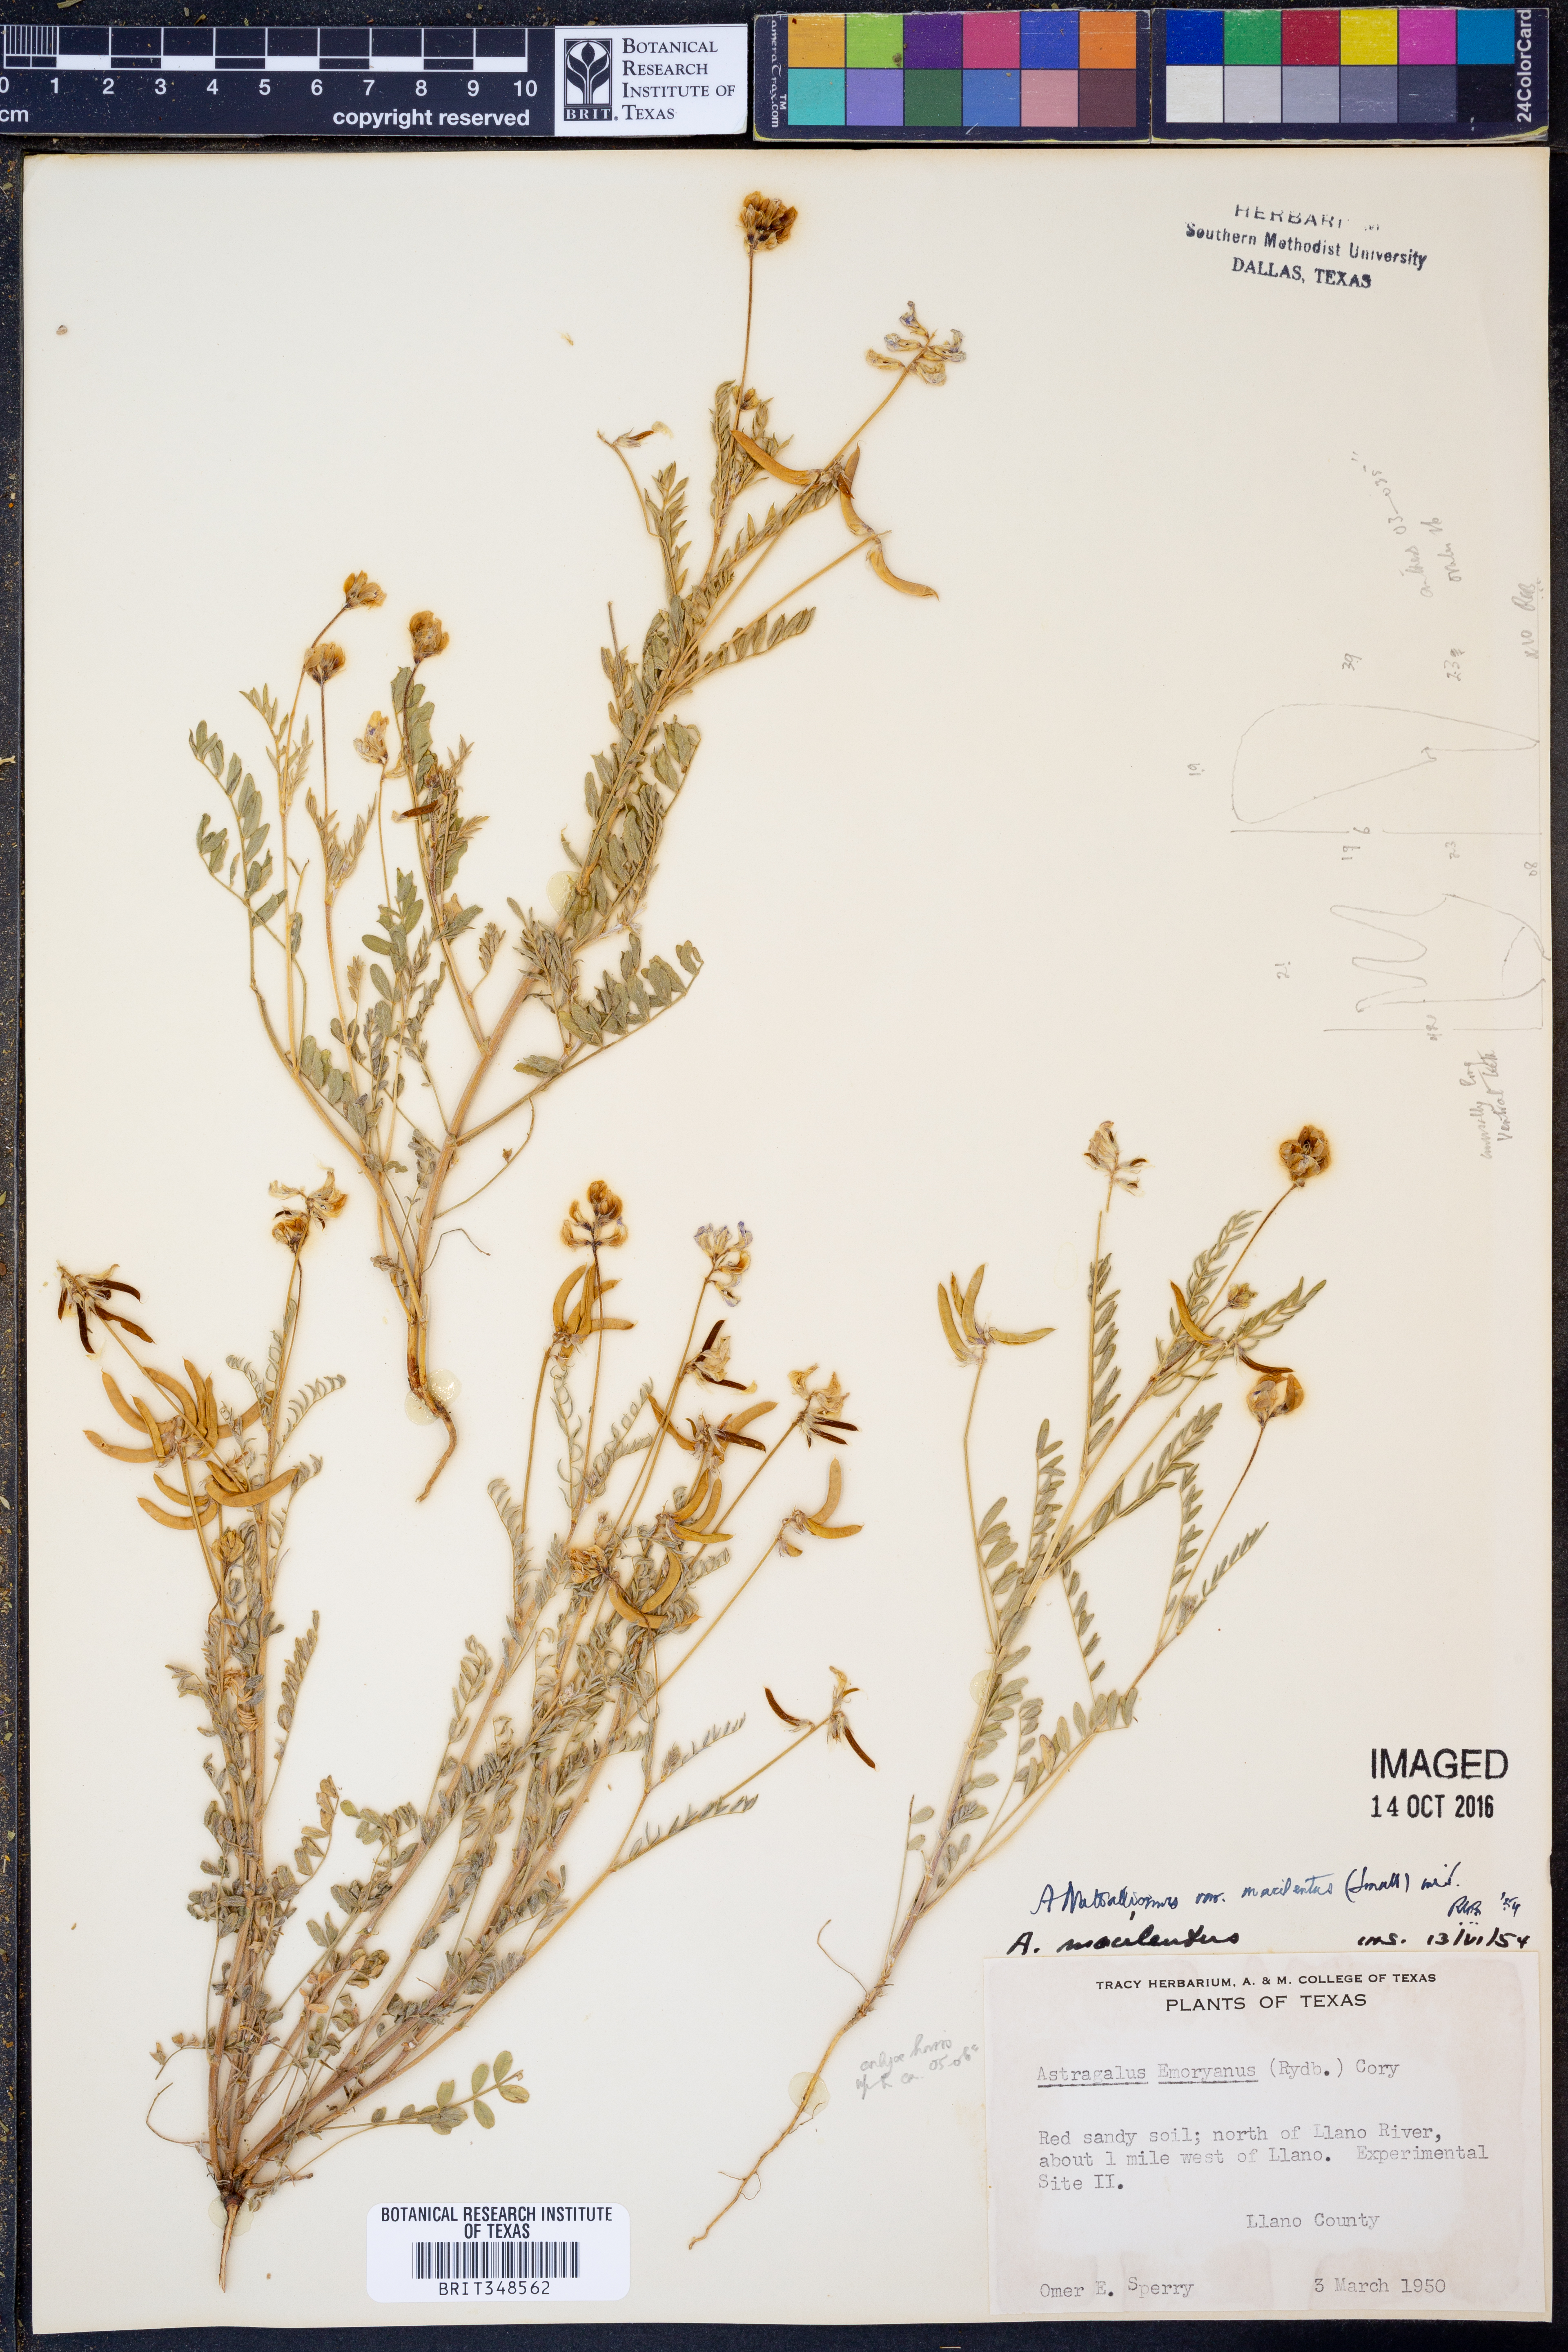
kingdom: Plantae
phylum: Tracheophyta
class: Magnoliopsida
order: Fabales
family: Fabaceae
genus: Astragalus
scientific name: Astragalus nuttallianus
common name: Smallflowered milkvetch
